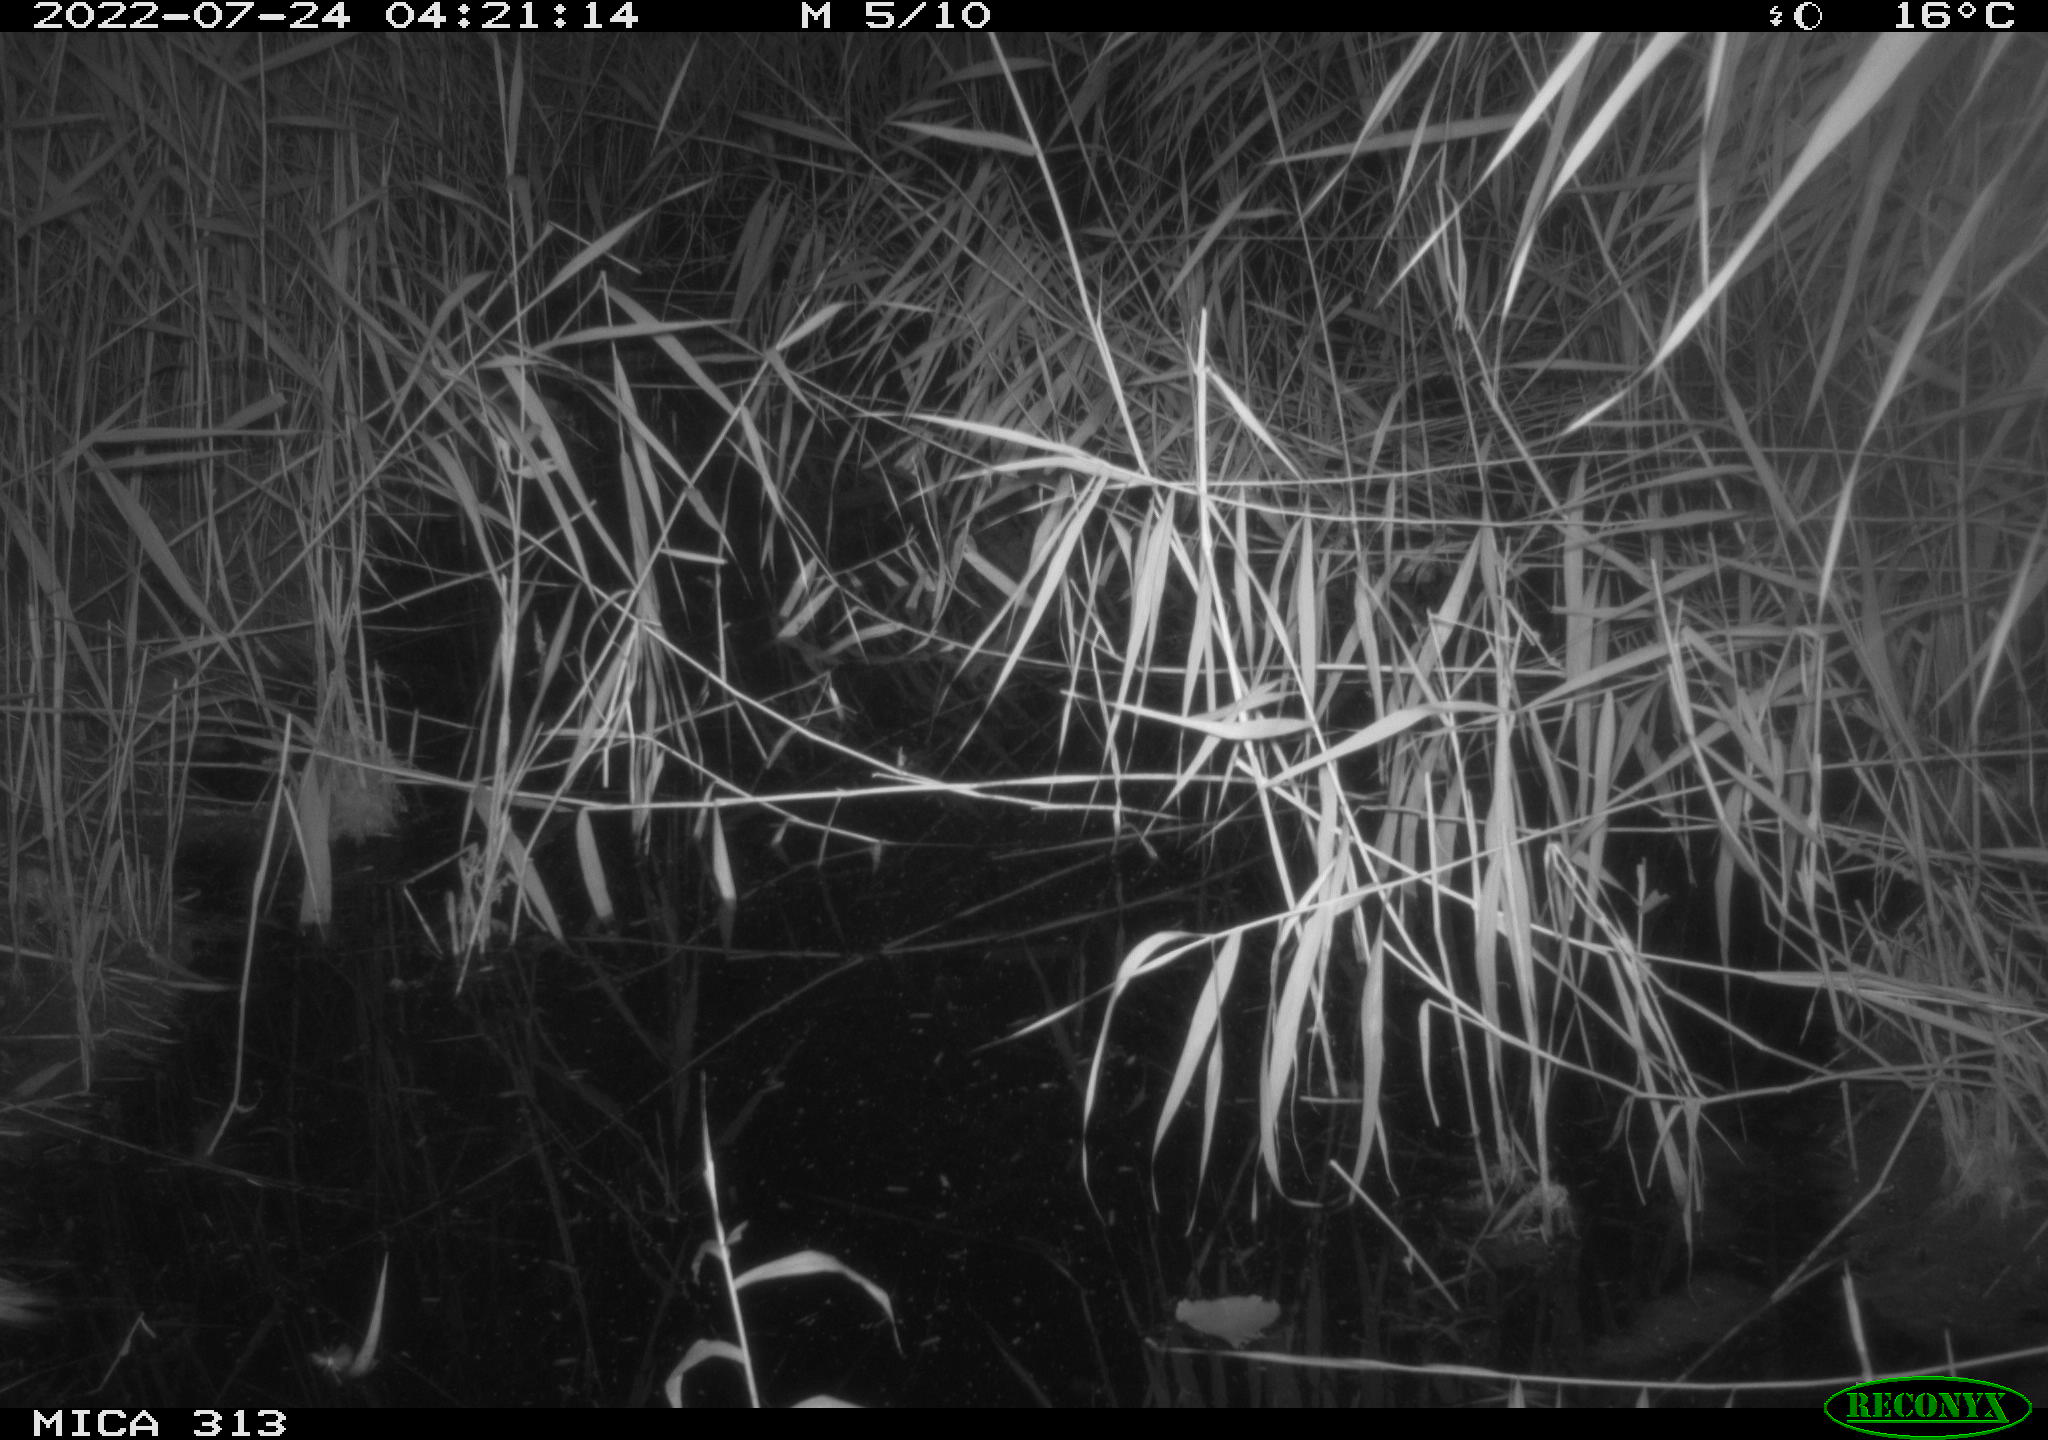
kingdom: Animalia
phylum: Chordata
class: Mammalia
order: Rodentia
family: Muridae
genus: Rattus
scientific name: Rattus norvegicus
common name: Brown rat
